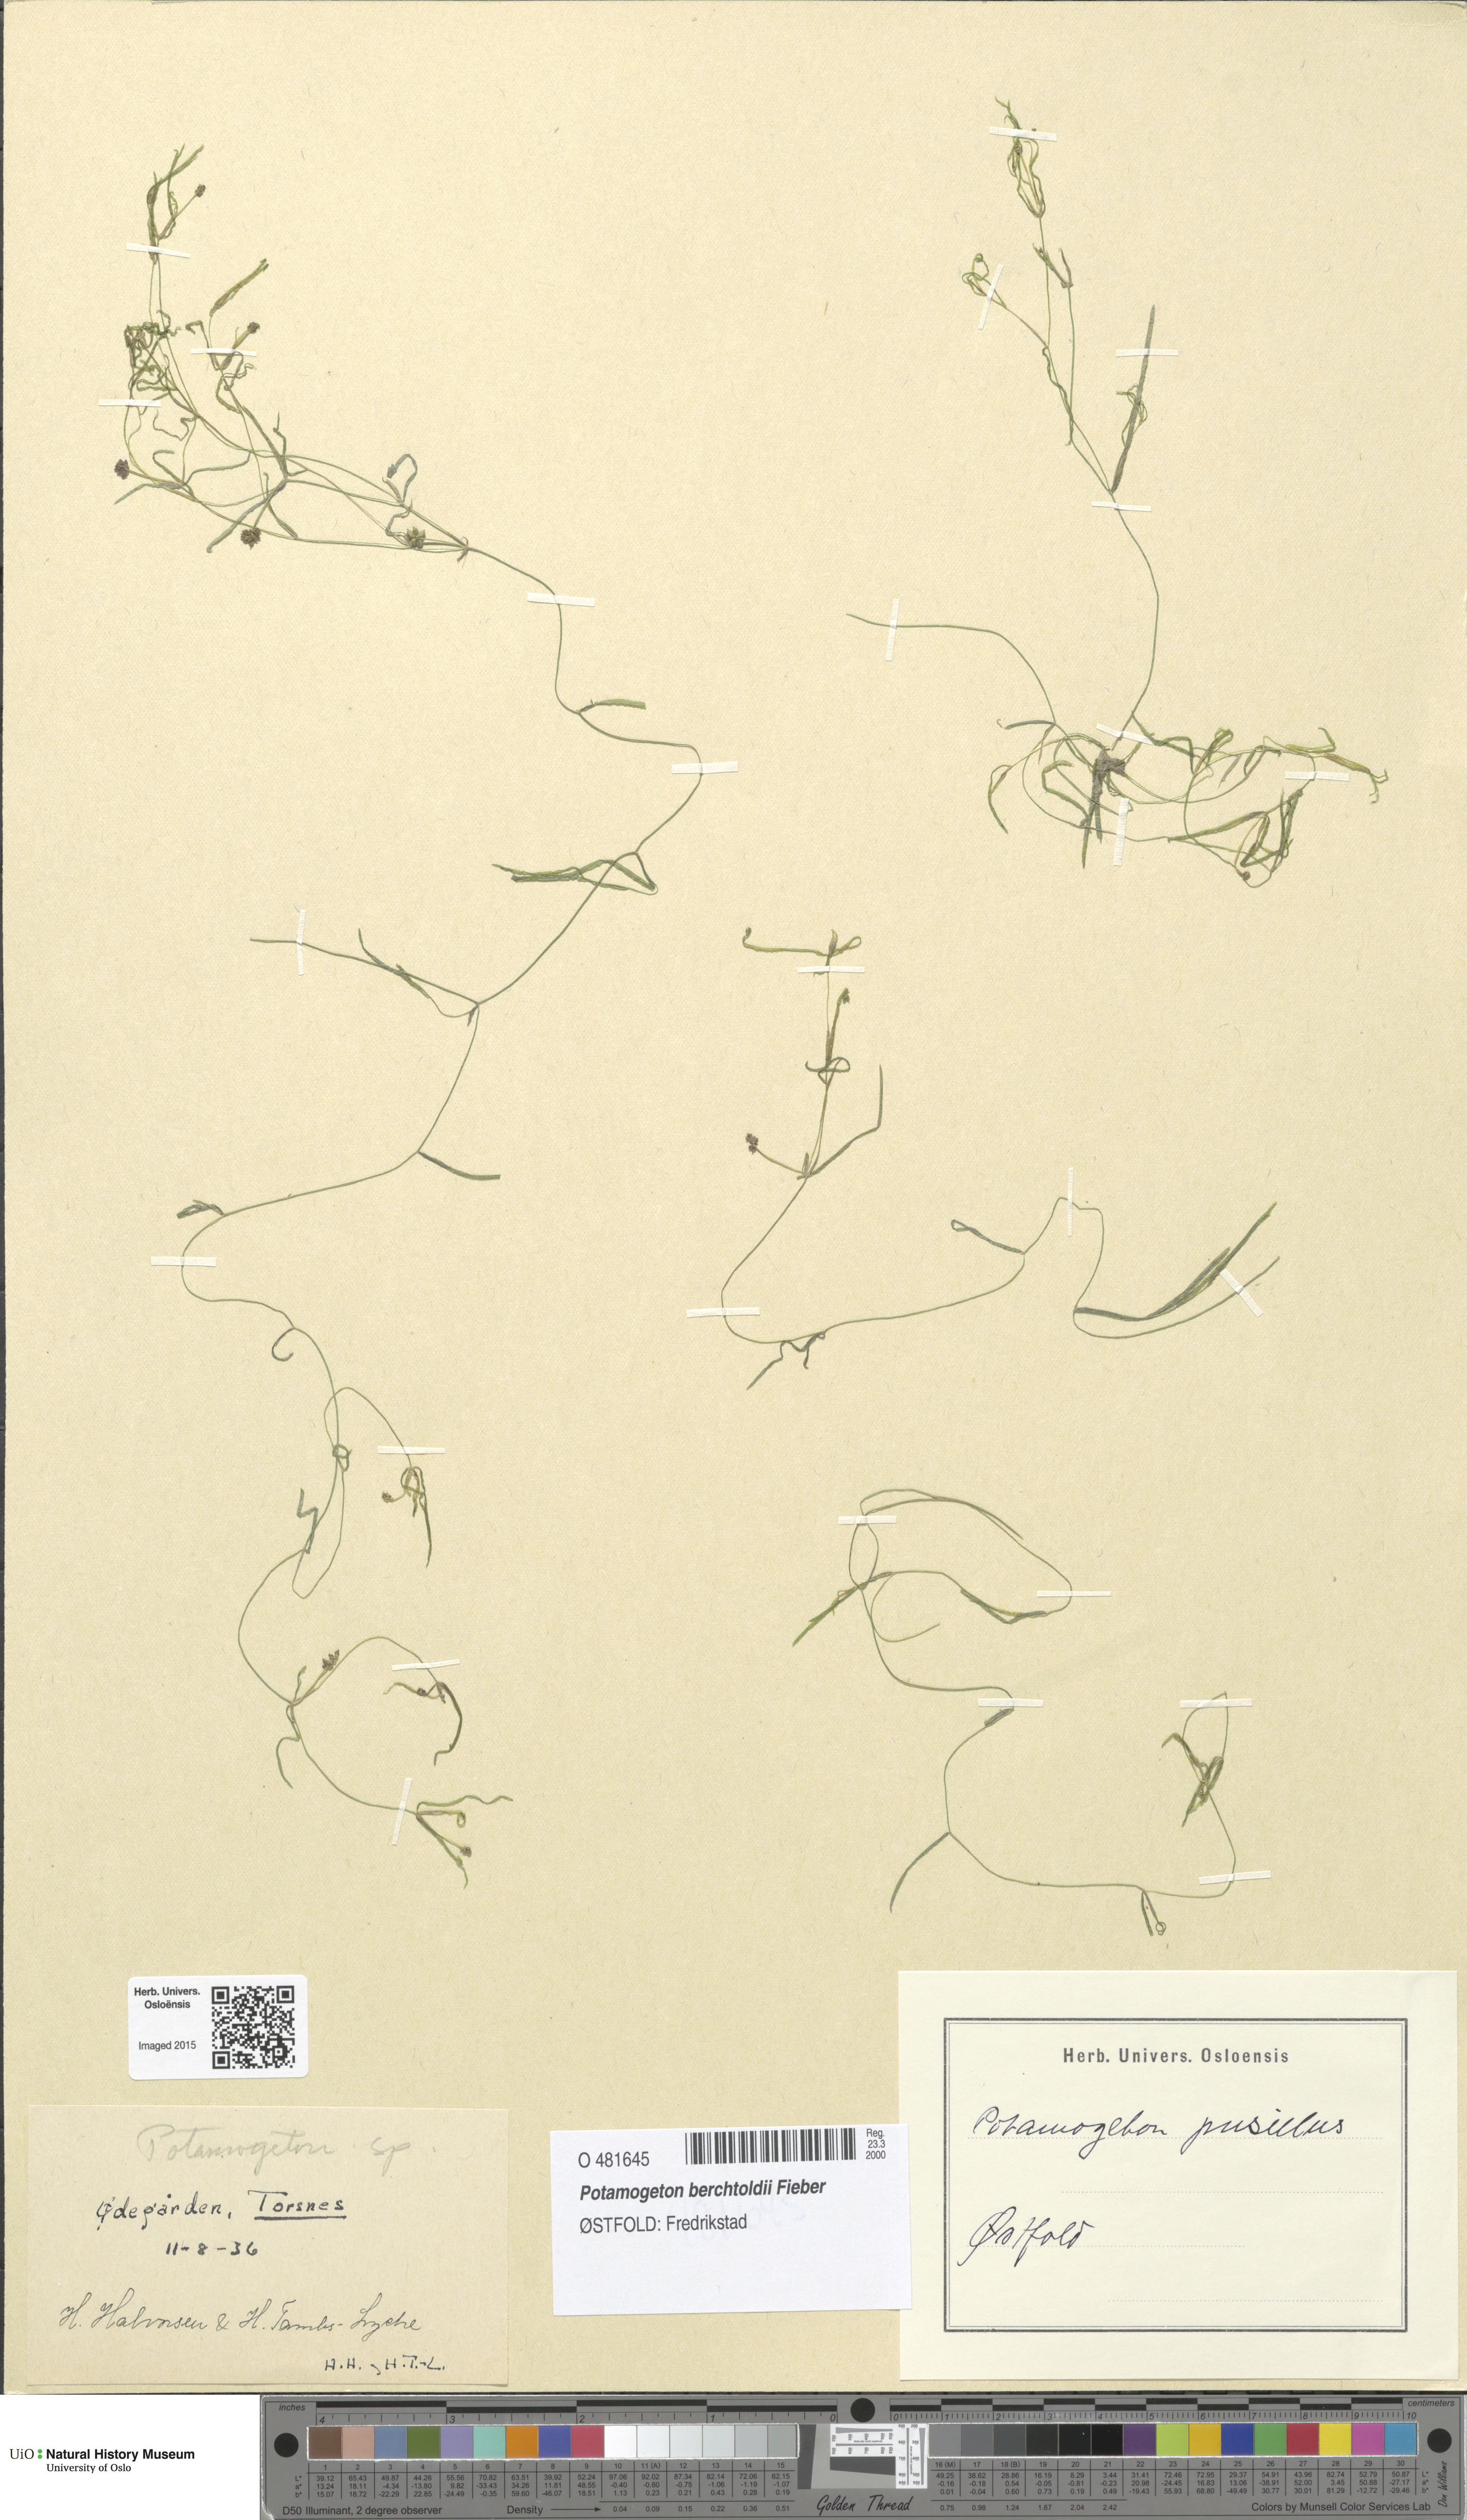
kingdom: Plantae
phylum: Tracheophyta
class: Liliopsida
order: Alismatales
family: Potamogetonaceae
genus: Potamogeton
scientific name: Potamogeton berchtoldii
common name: Small pondweed
